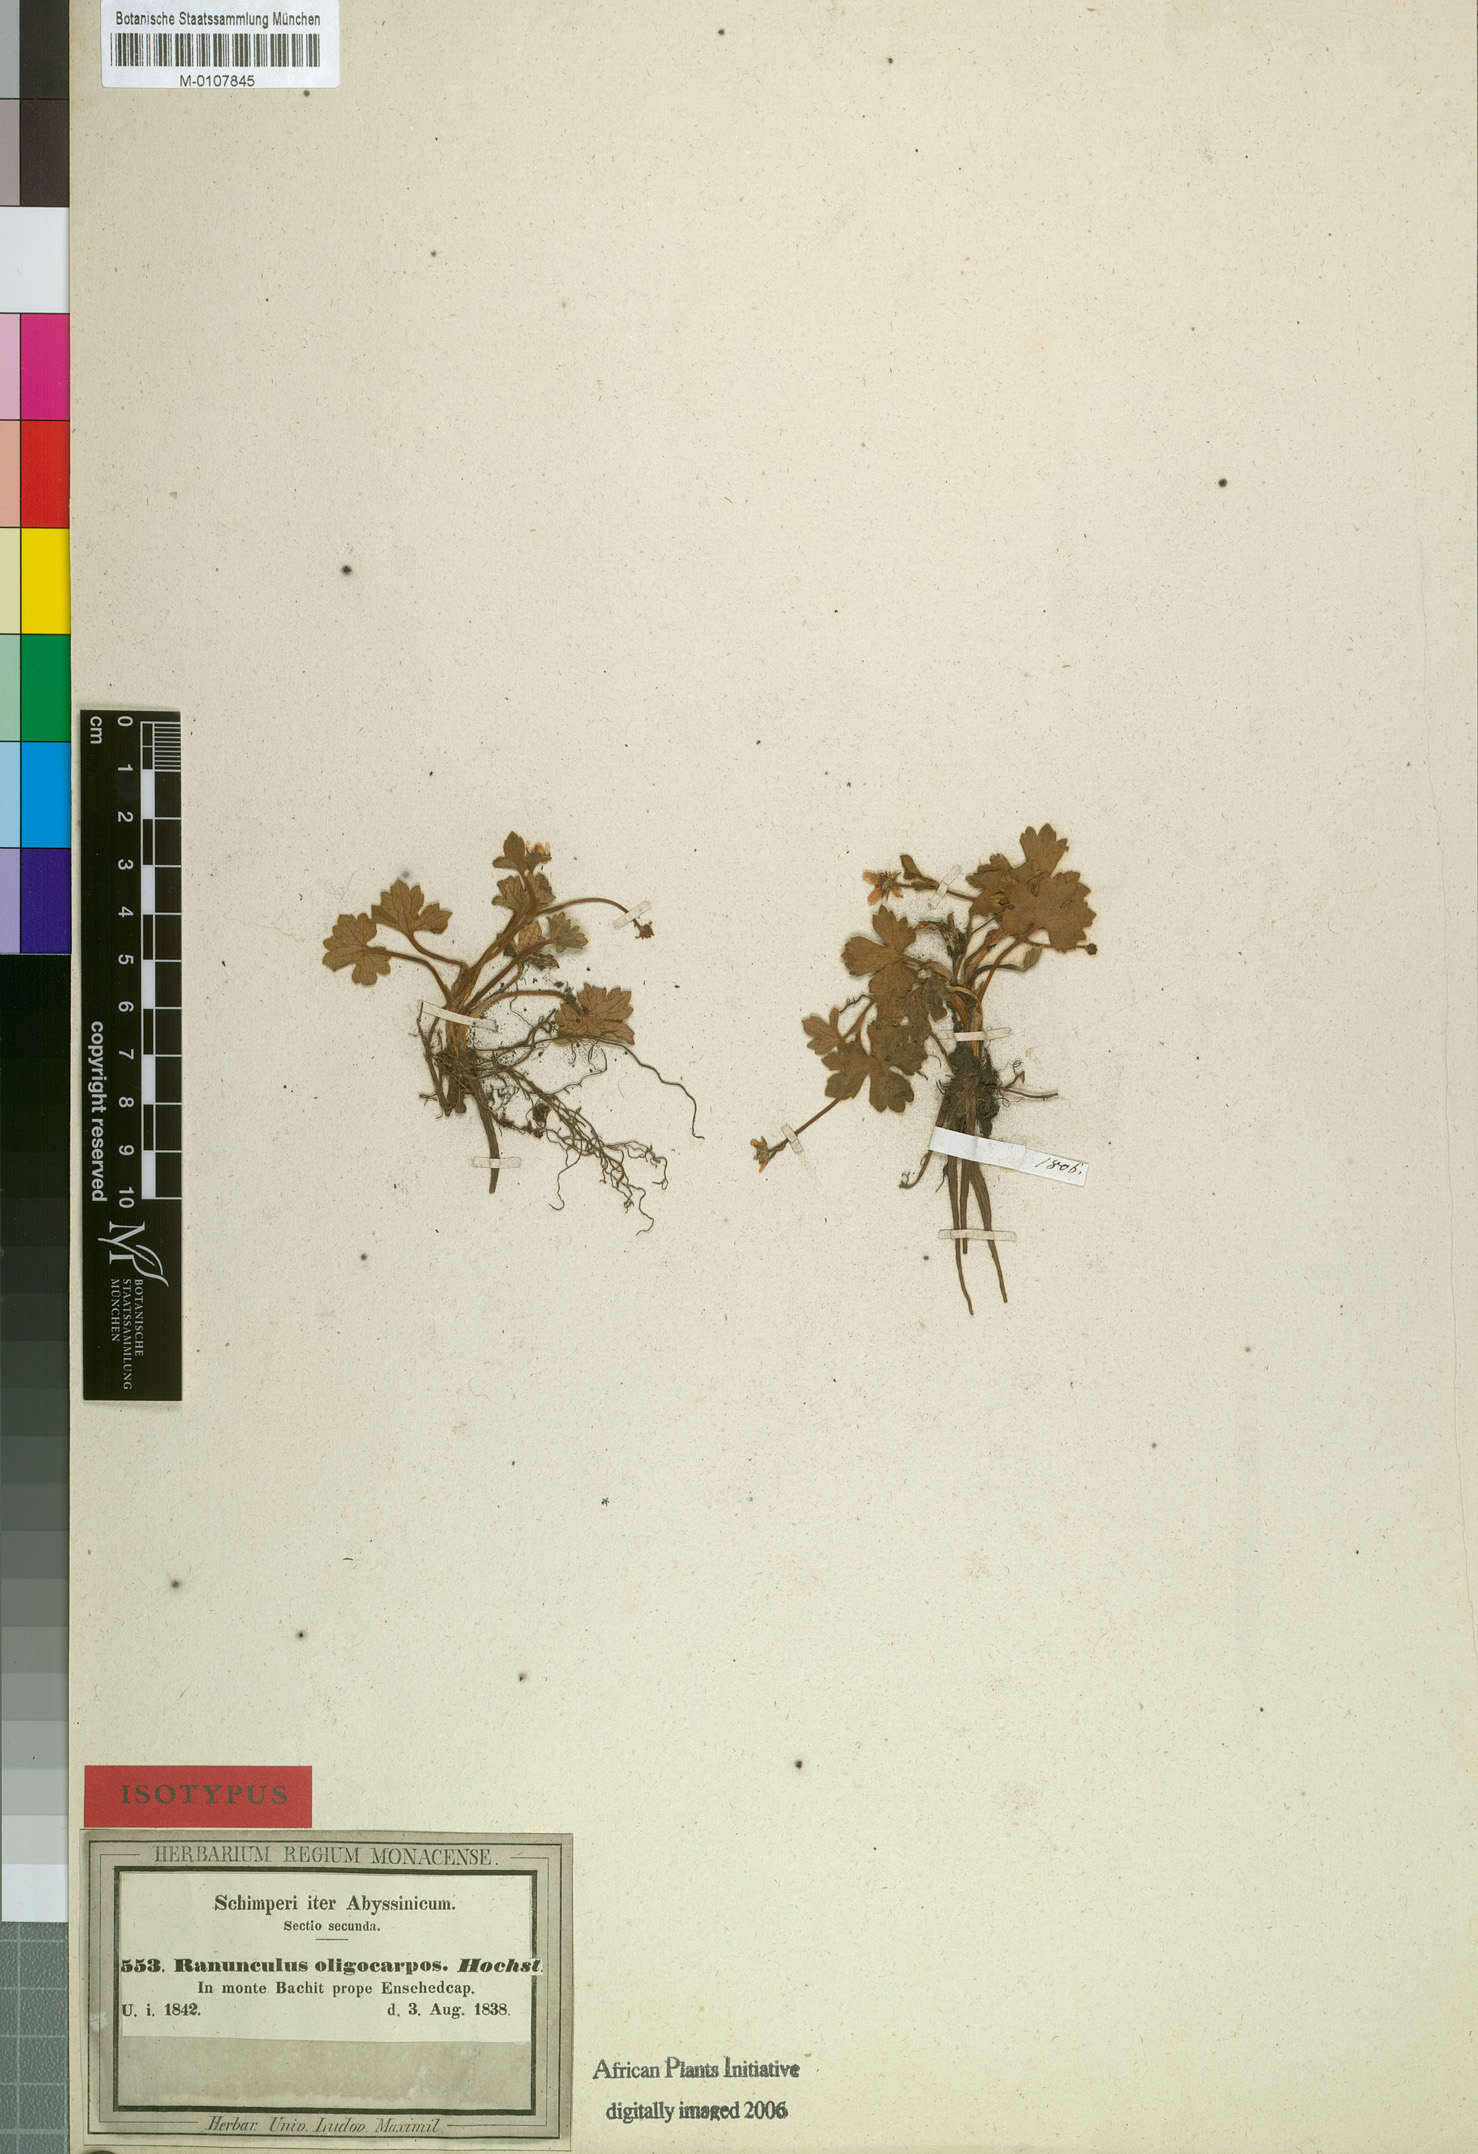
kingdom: Plantae
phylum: Tracheophyta
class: Magnoliopsida
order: Ranunculales
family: Ranunculaceae
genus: Ranunculus
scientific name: Ranunculus oligocarpos
